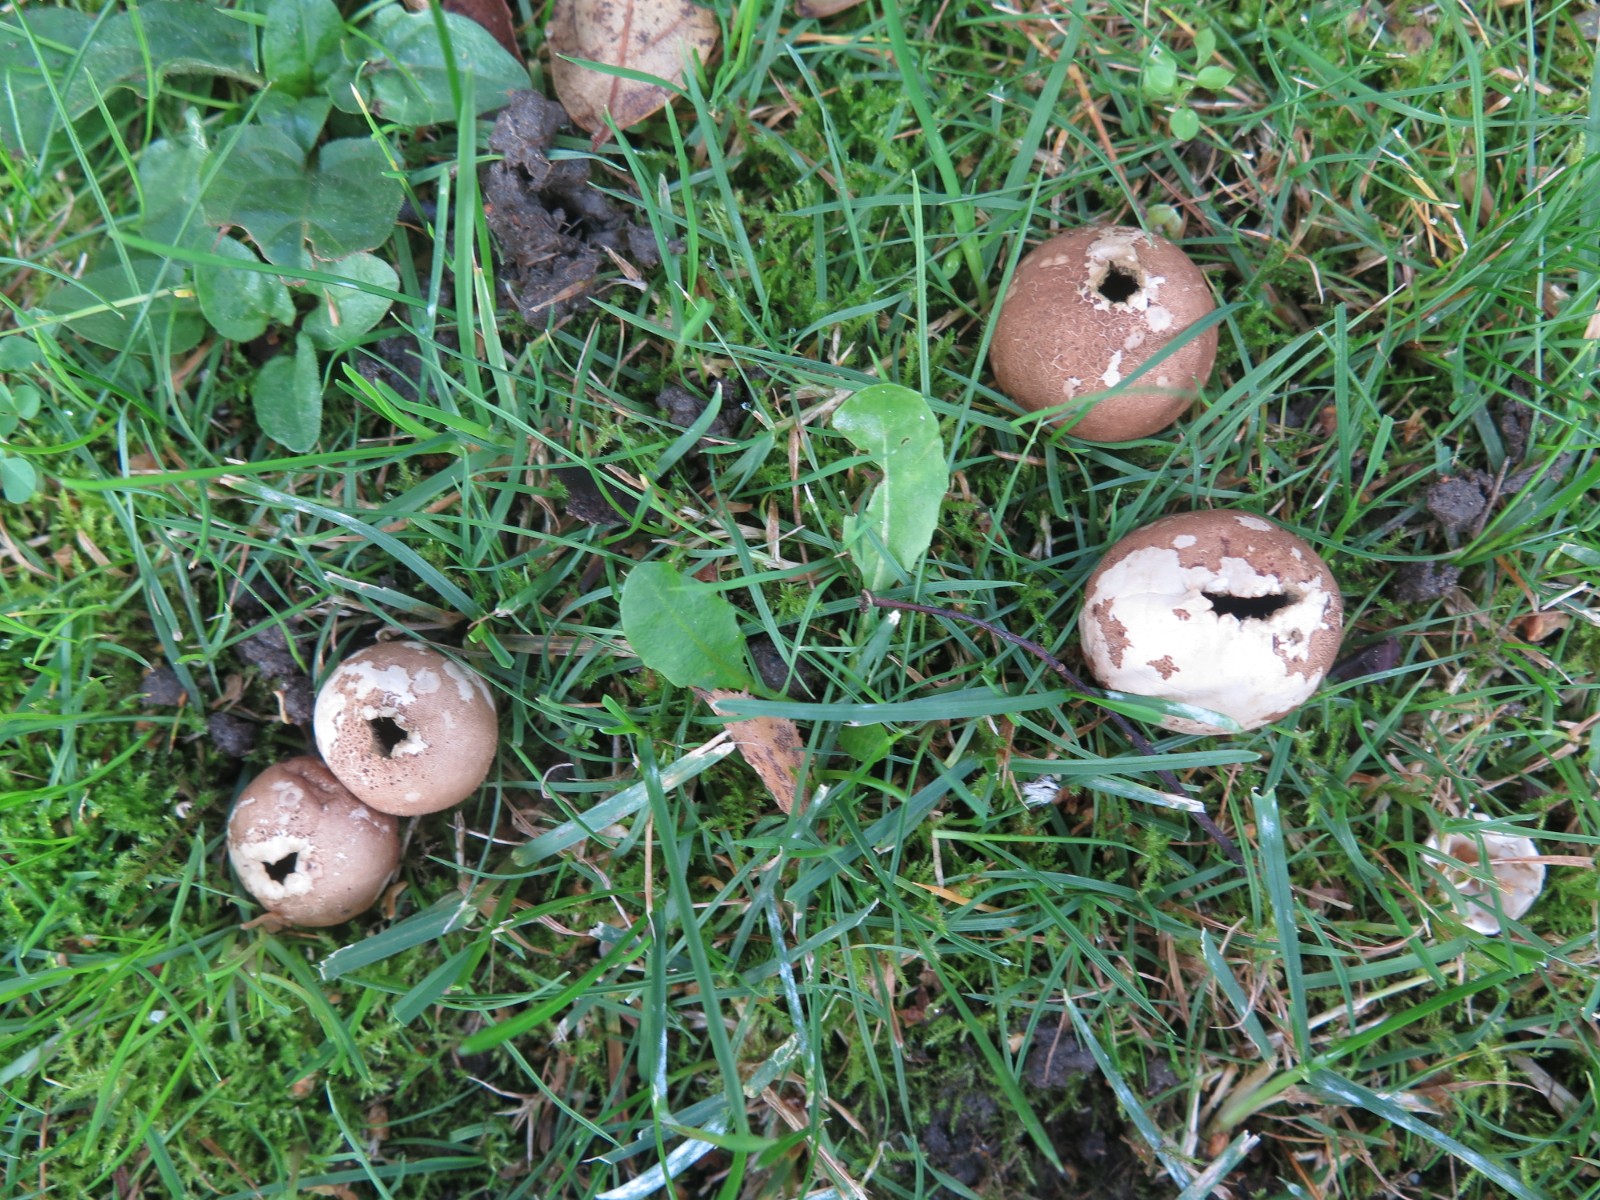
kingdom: Fungi
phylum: Basidiomycota
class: Agaricomycetes
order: Agaricales
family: Lycoperdaceae
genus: Apioperdon
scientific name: Apioperdon pyriforme
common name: pære-støvbold
